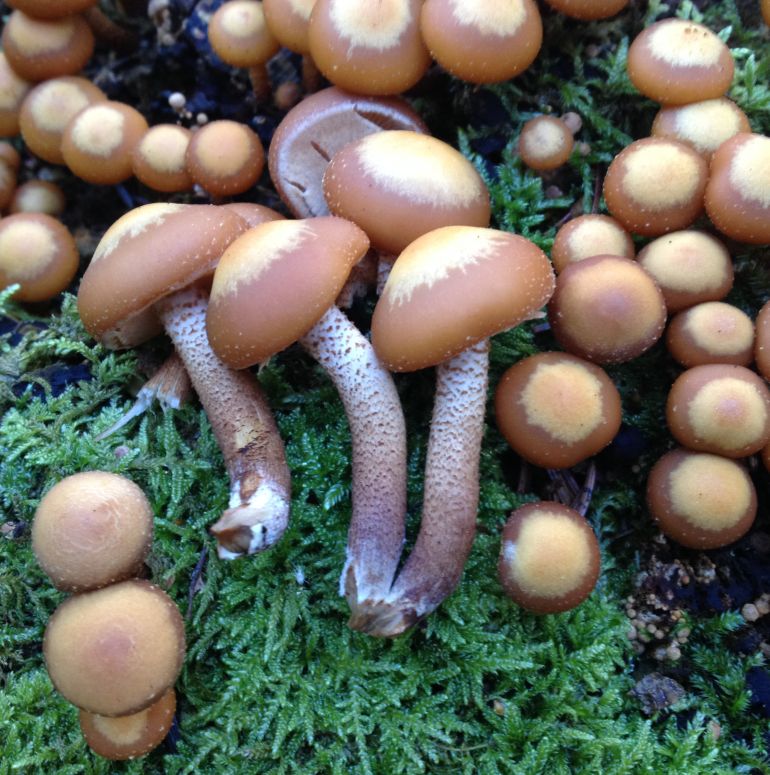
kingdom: Fungi
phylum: Basidiomycota
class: Agaricomycetes
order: Agaricales
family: Strophariaceae
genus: Kuehneromyces
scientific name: Kuehneromyces mutabilis
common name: foranderlig skælhat
